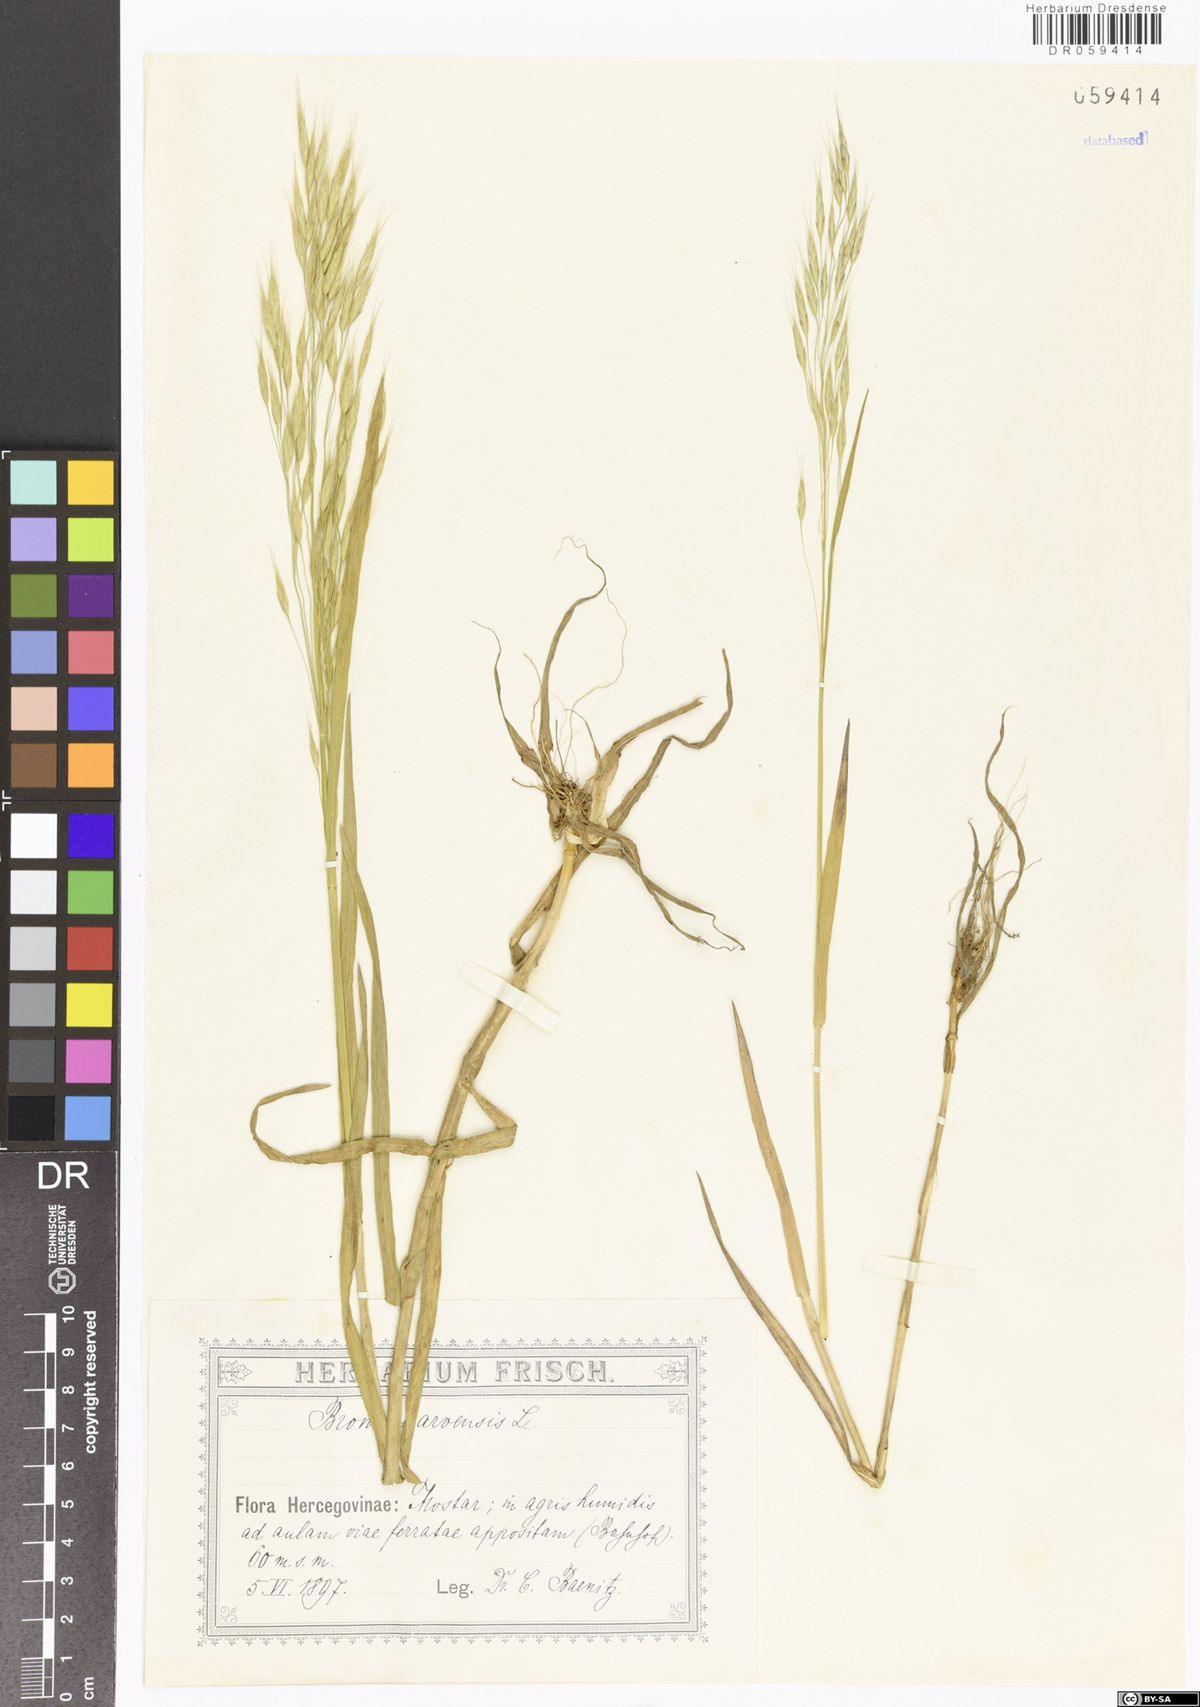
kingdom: Plantae
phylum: Tracheophyta
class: Liliopsida
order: Poales
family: Poaceae
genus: Bromus
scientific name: Bromus arvensis
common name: Field brome
